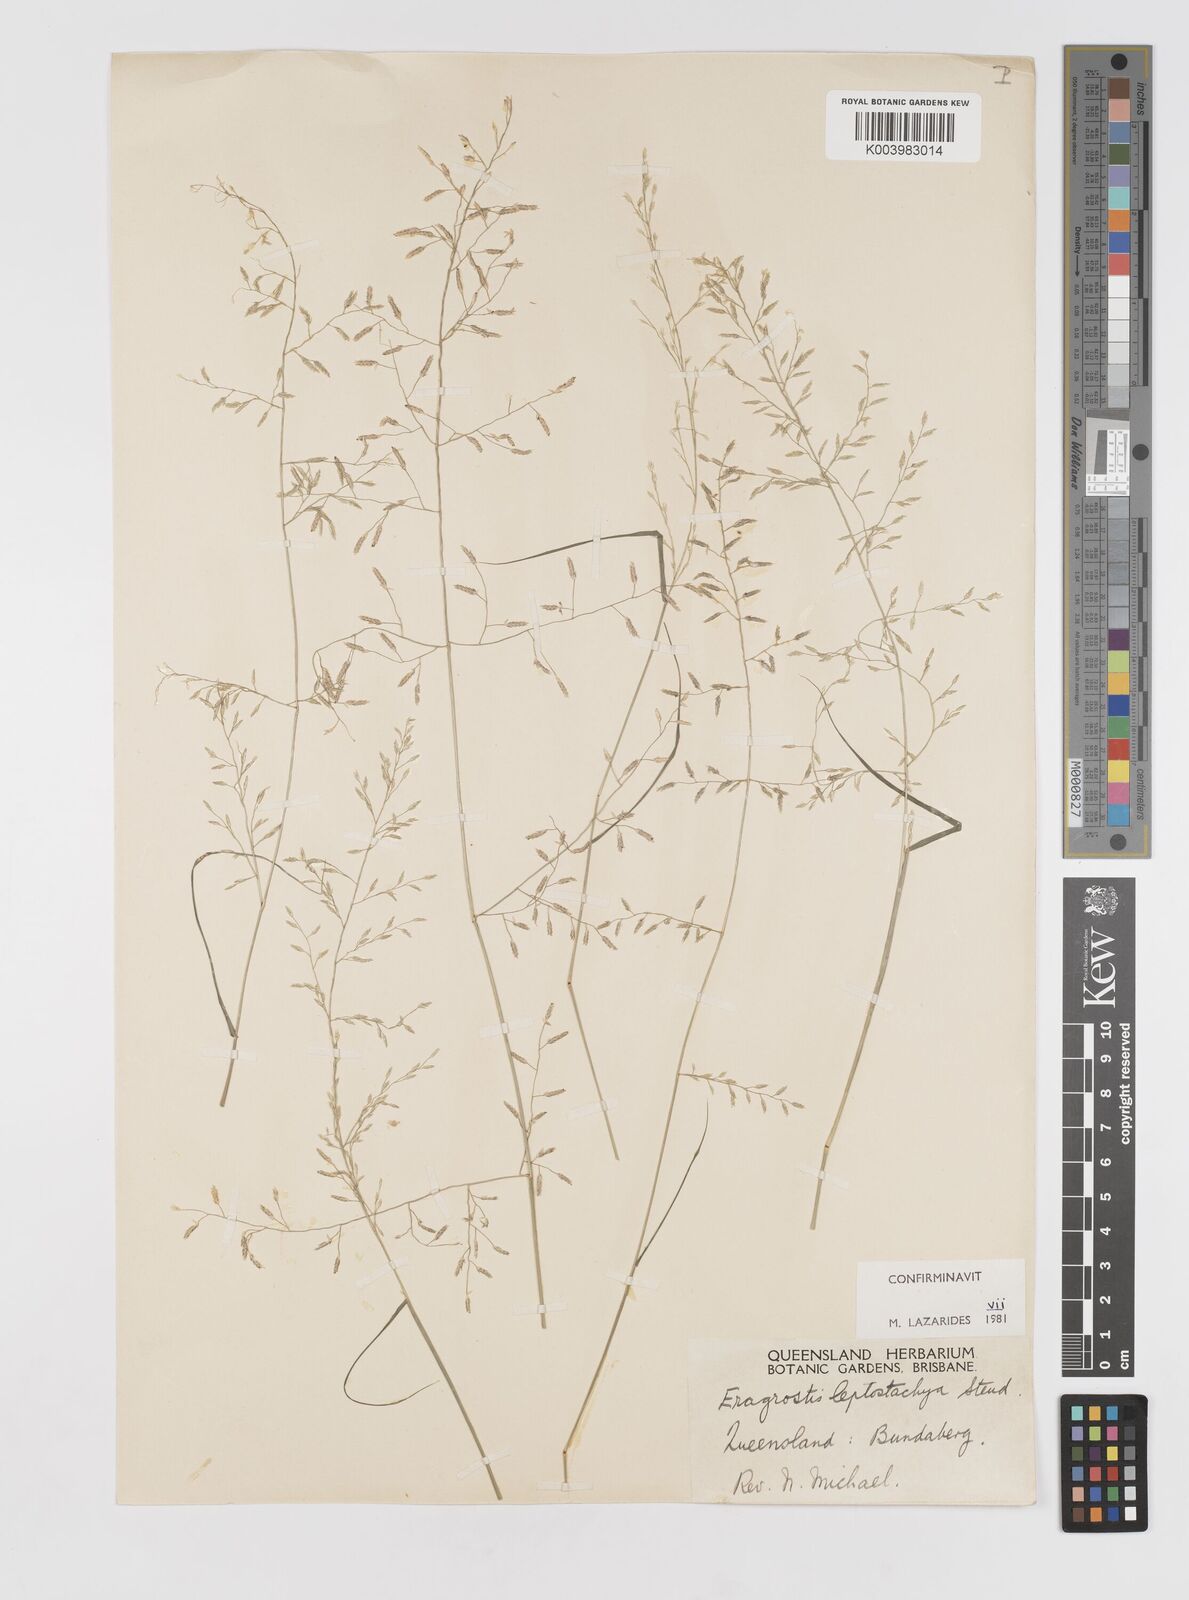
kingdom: Plantae
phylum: Tracheophyta
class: Liliopsida
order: Poales
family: Poaceae
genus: Eragrostis
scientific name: Eragrostis leptostachya
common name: Australian lovegrass
